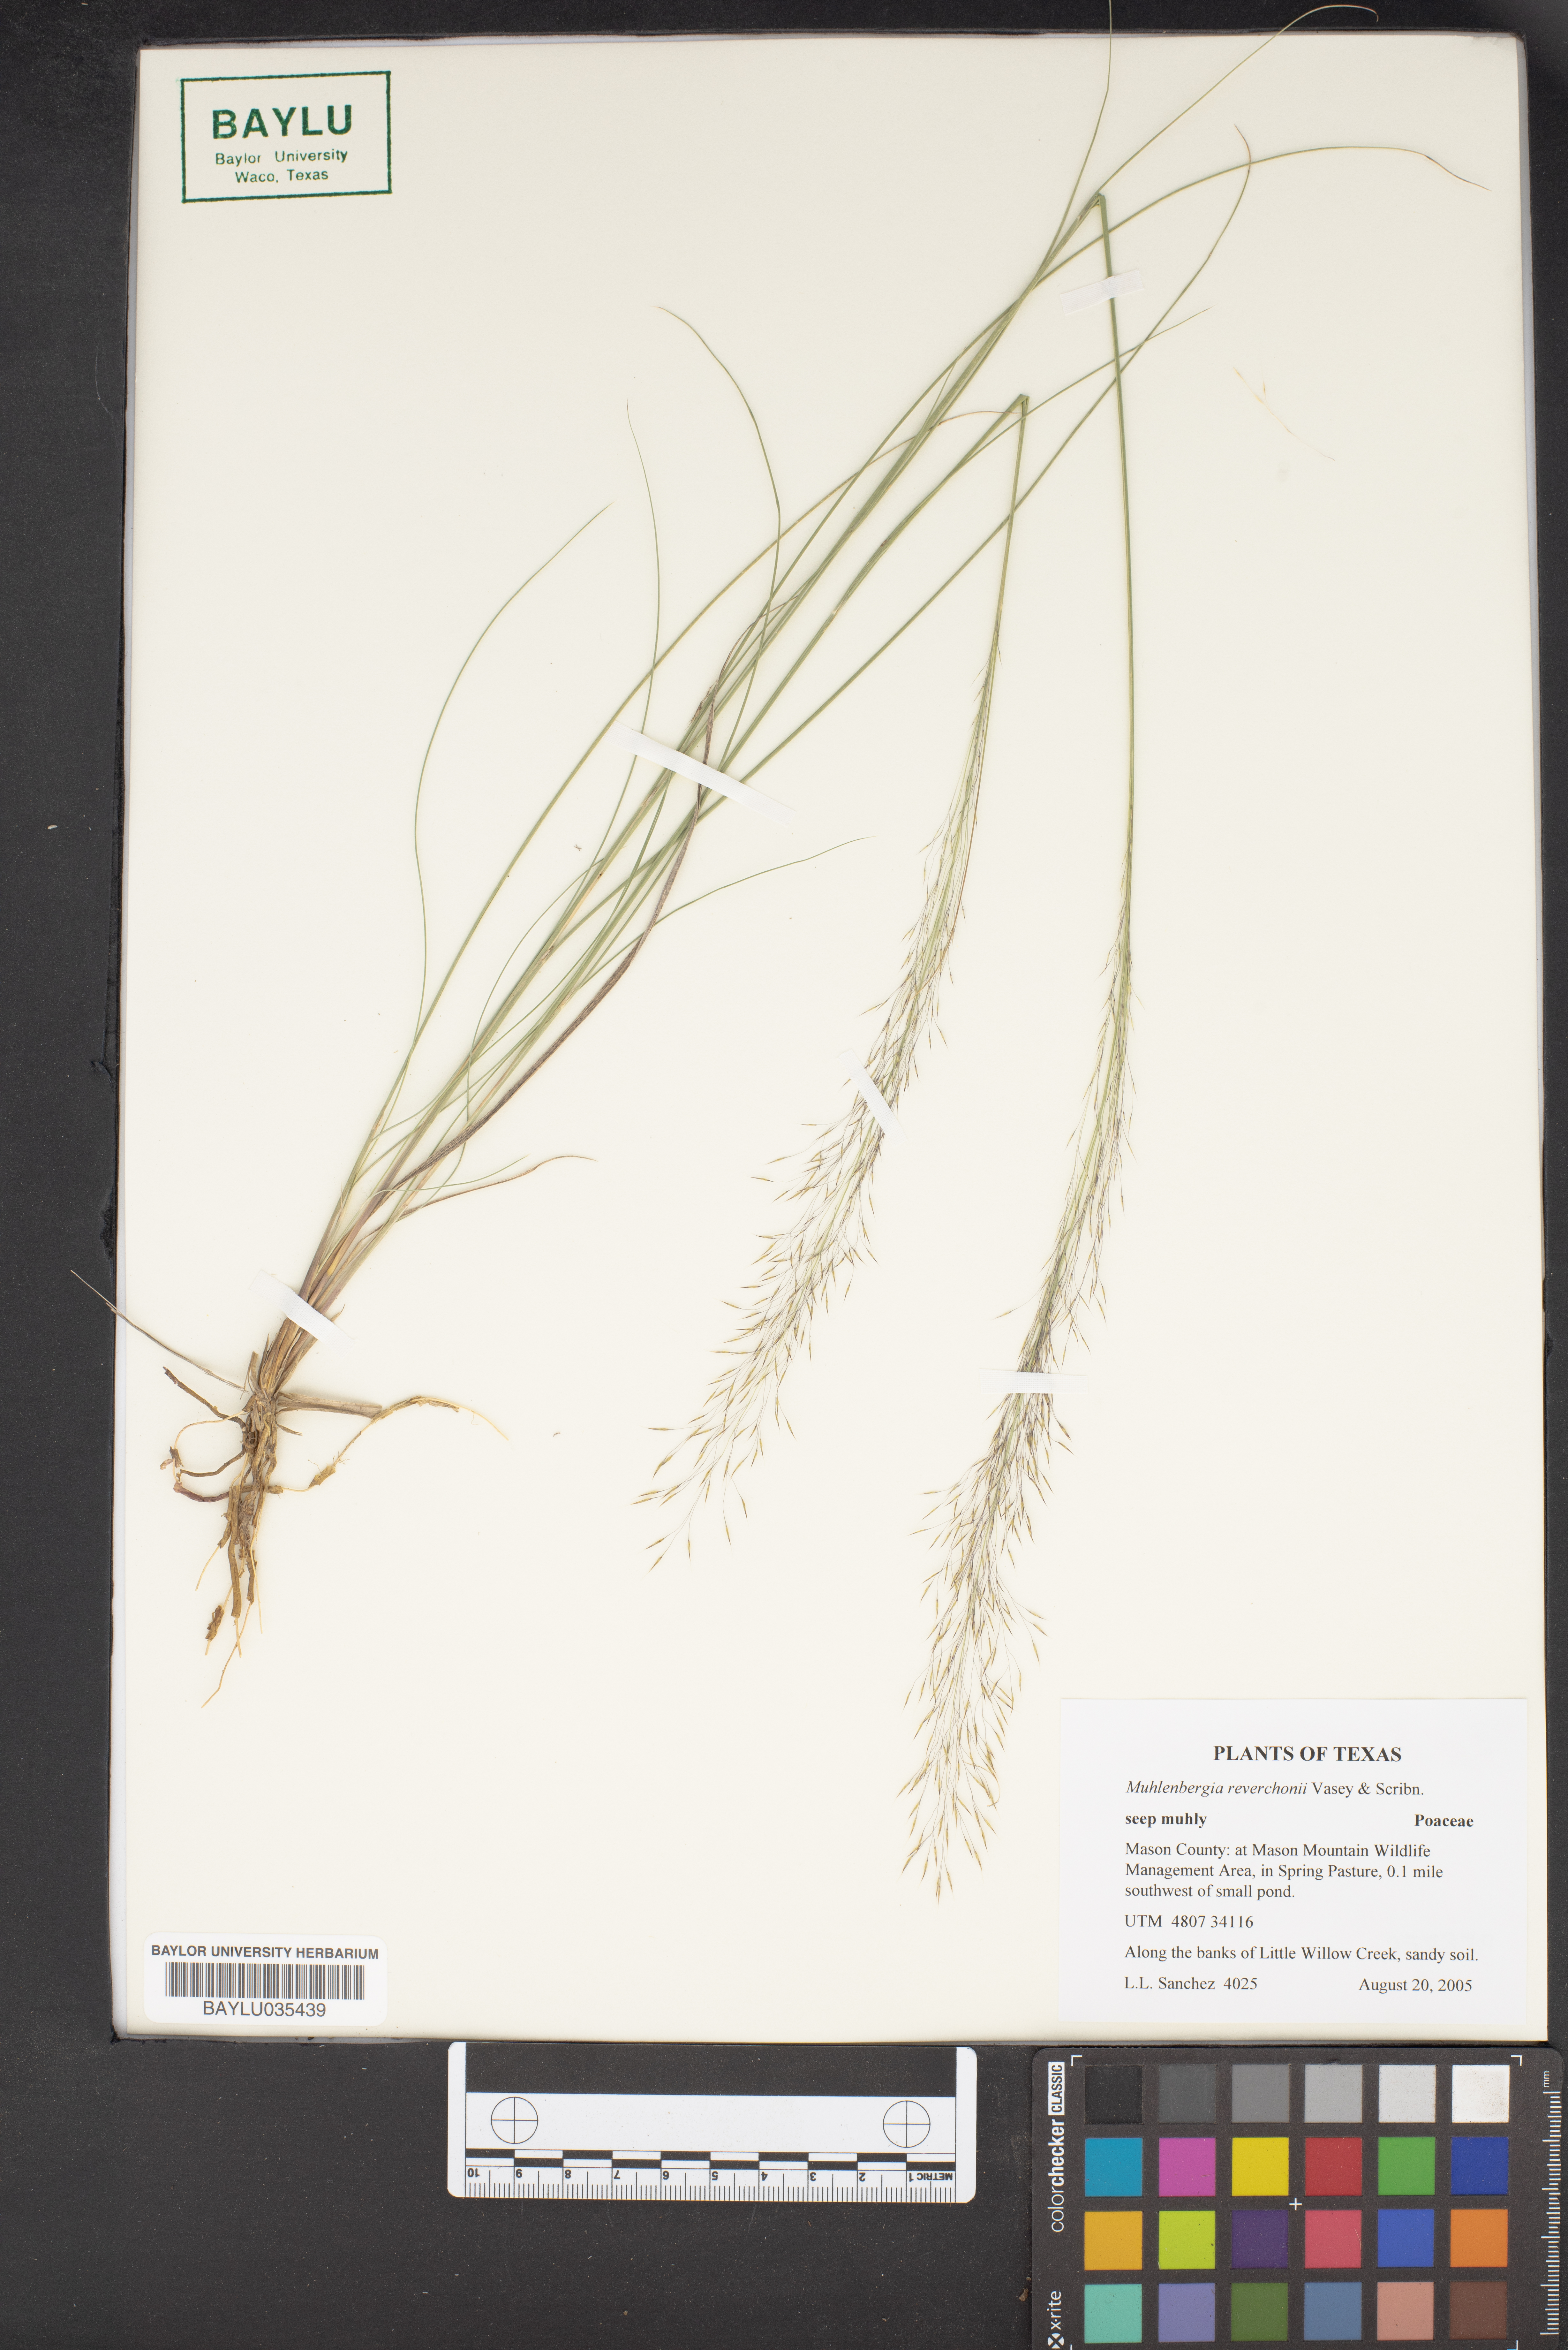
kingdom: Plantae
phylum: Tracheophyta
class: Liliopsida
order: Poales
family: Poaceae
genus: Muhlenbergia
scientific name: Muhlenbergia reverchonii
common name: Seep muhly
